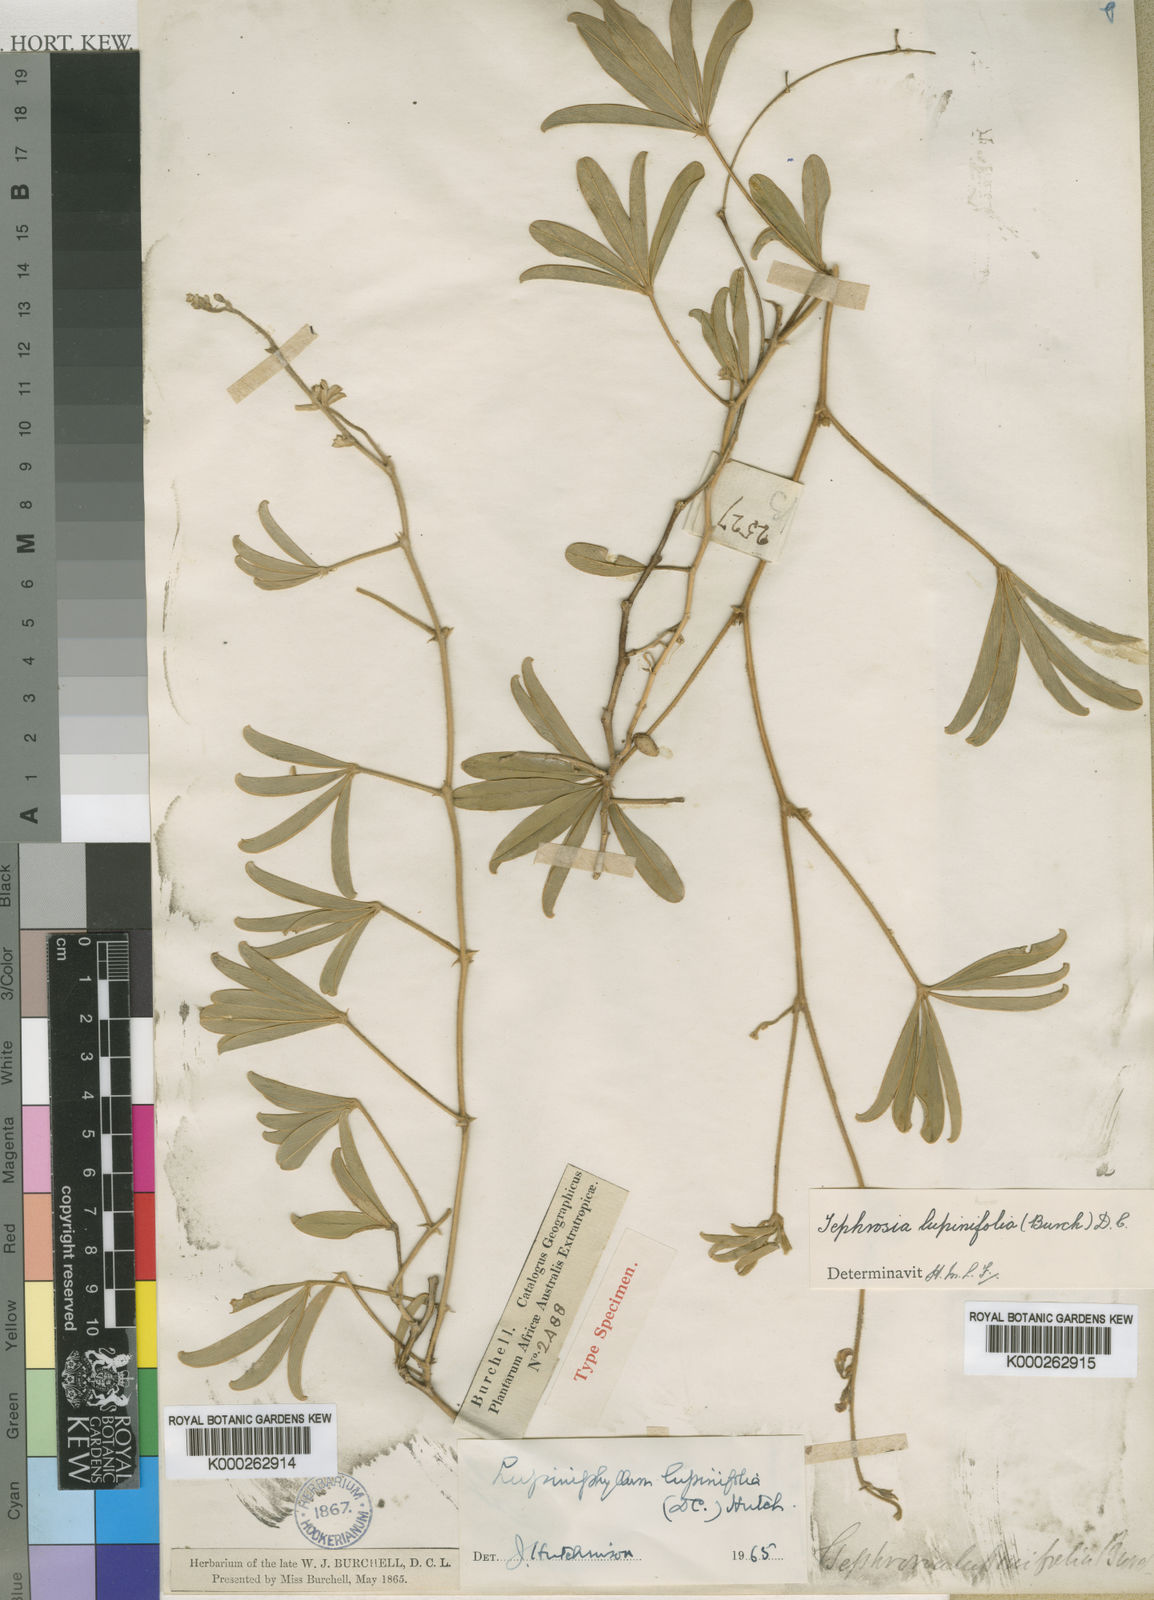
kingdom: Plantae
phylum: Tracheophyta
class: Magnoliopsida
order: Fabales
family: Fabaceae
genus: Tephrosia
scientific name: Tephrosia lupinifolia
